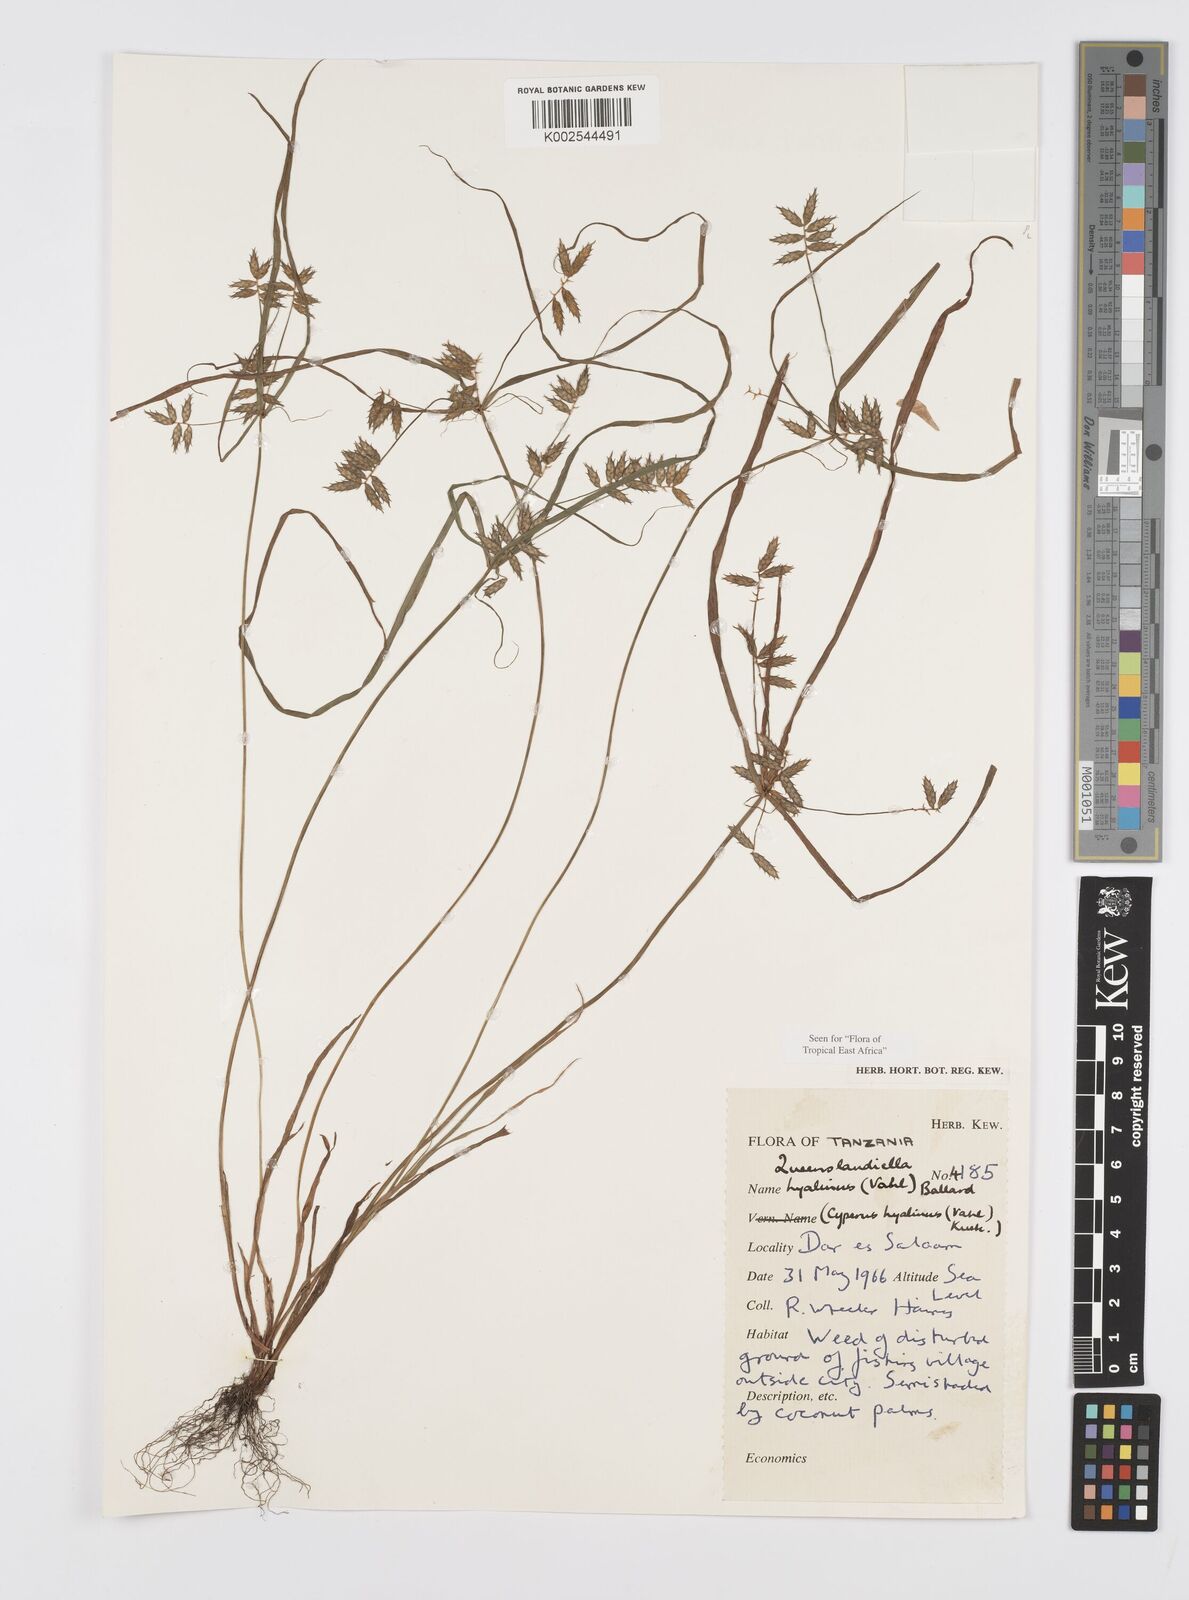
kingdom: Plantae
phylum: Tracheophyta
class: Liliopsida
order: Poales
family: Cyperaceae
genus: Cyperus
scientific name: Cyperus hyalinus
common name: Queensland sedge
